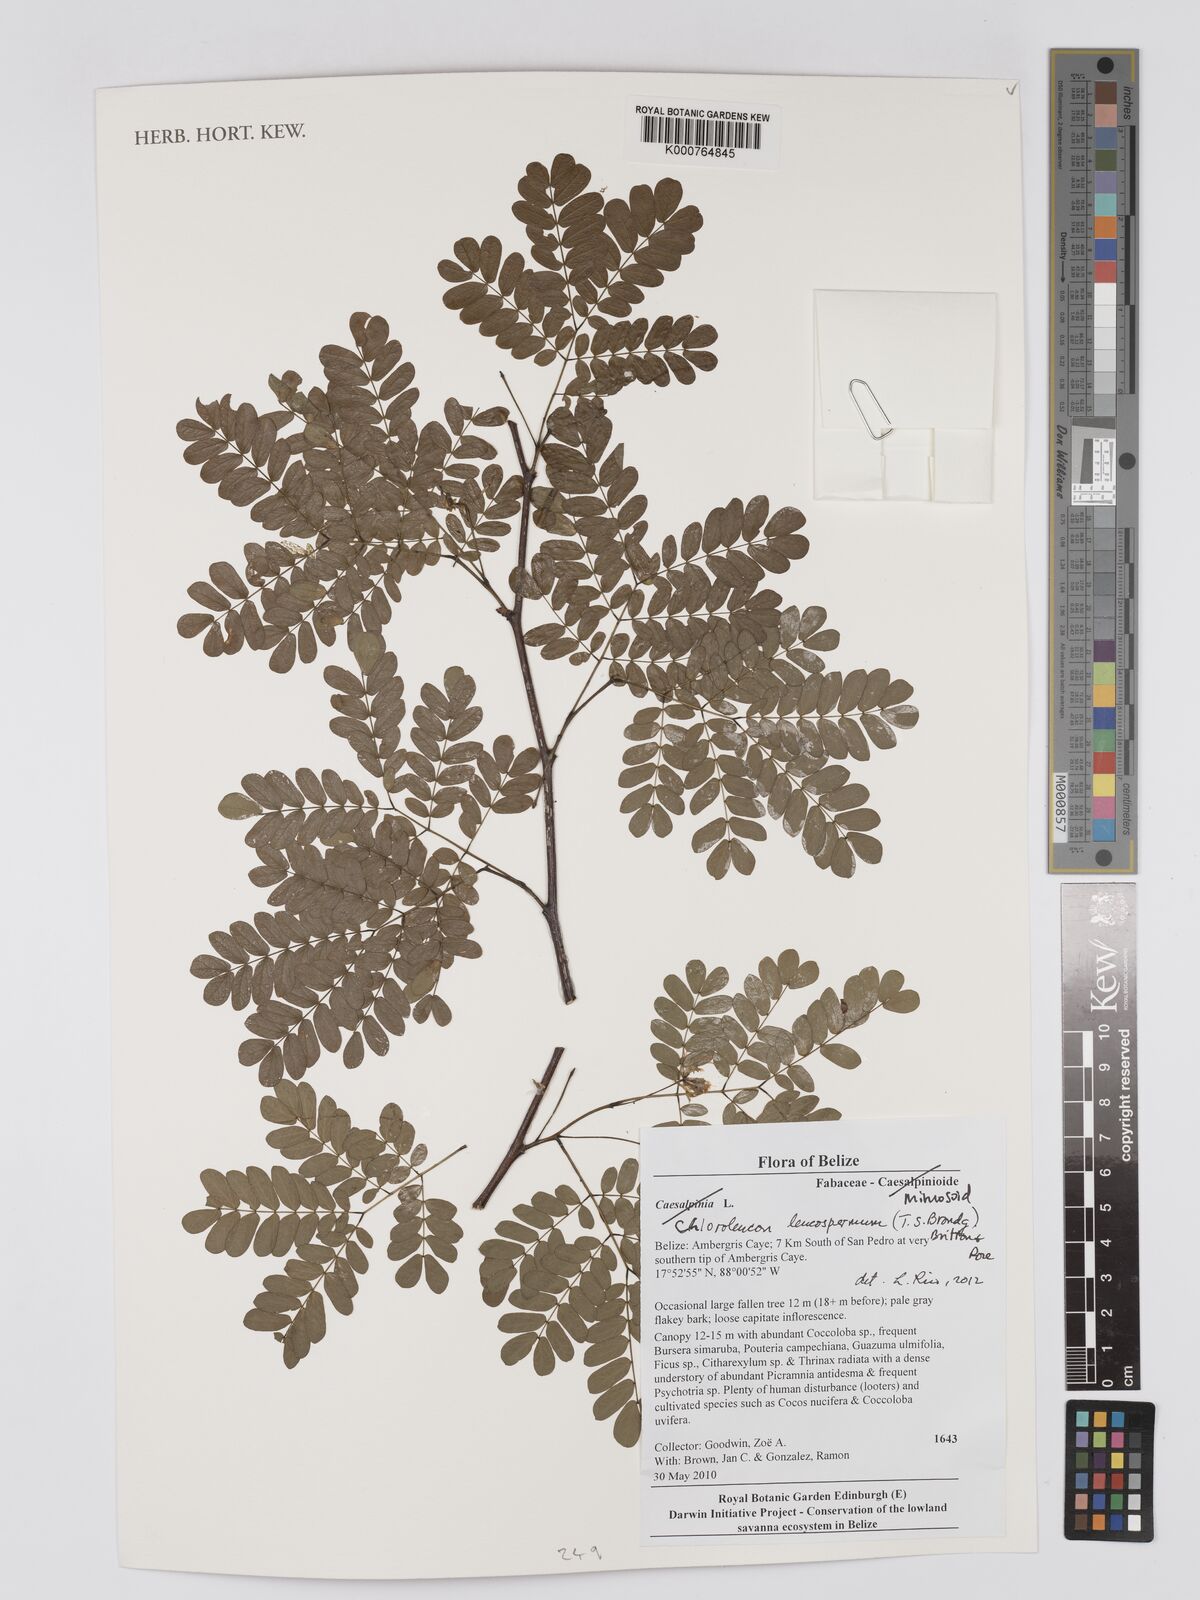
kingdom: Plantae
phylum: Tracheophyta
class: Magnoliopsida
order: Fabales
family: Fabaceae
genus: Chloroleucon
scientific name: Chloroleucon mangense
